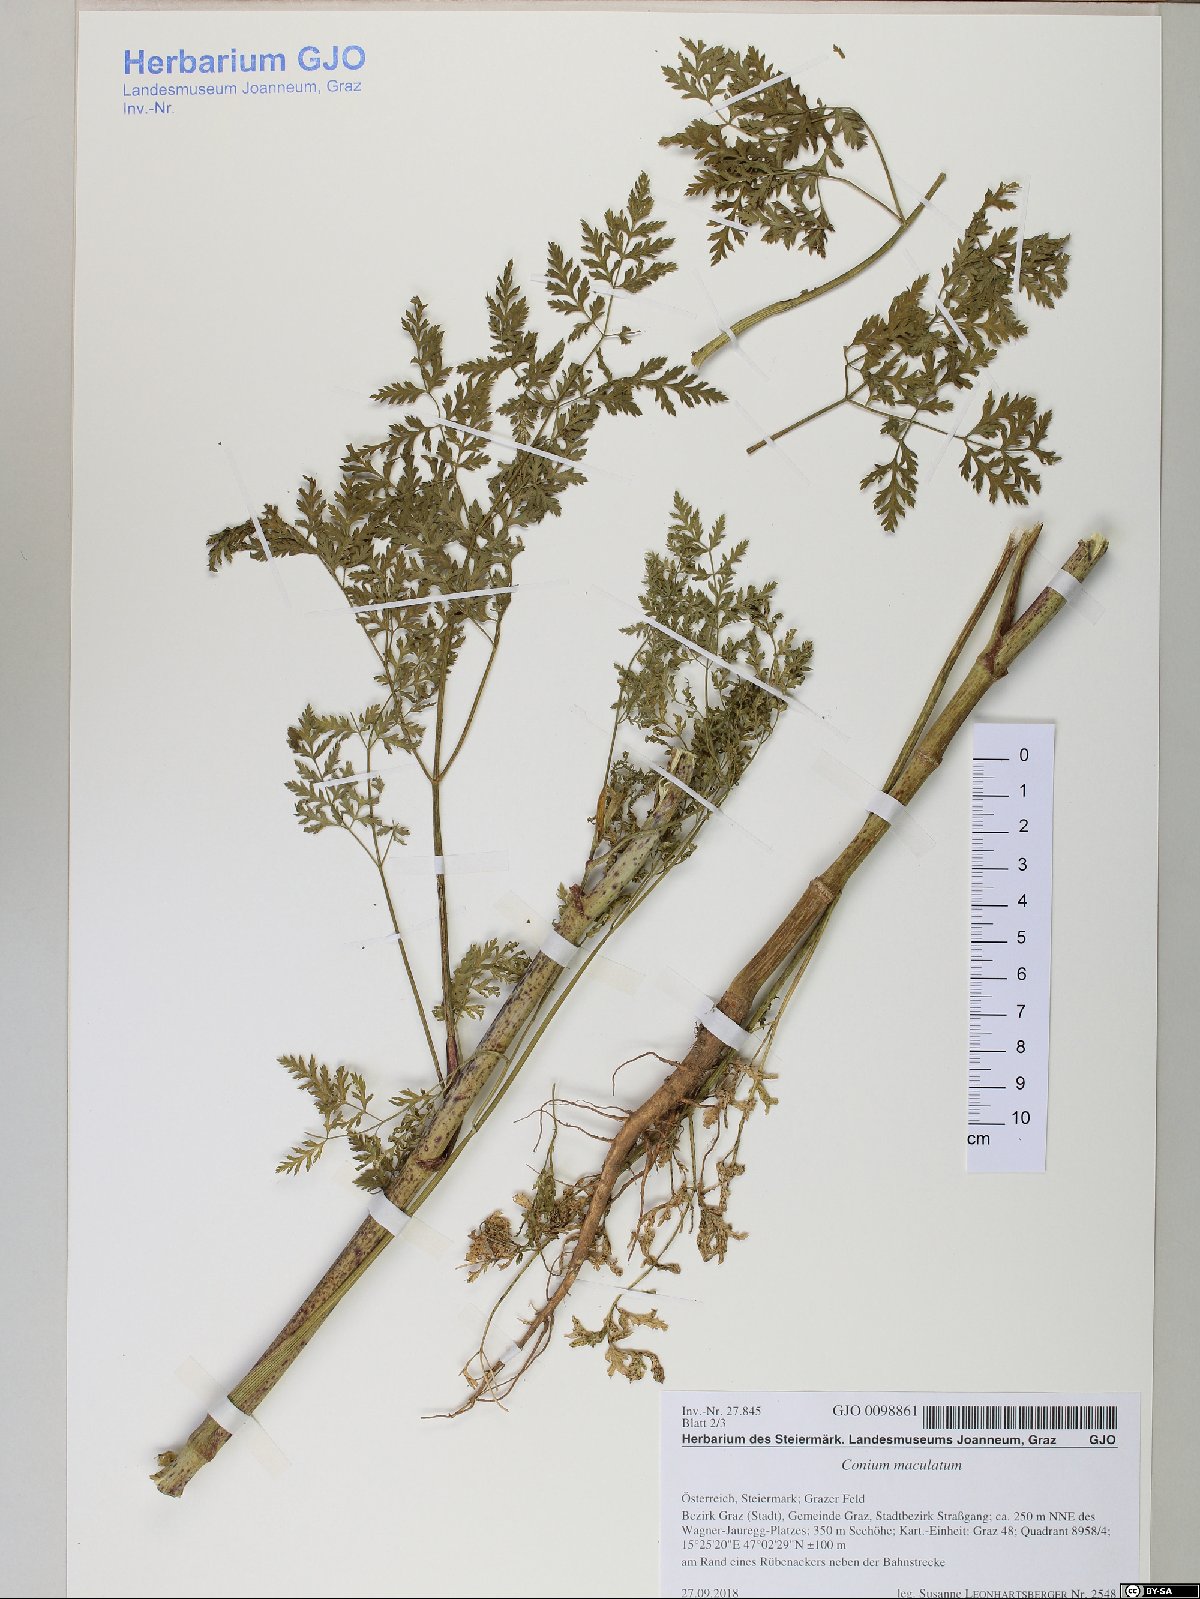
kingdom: Plantae
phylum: Tracheophyta
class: Magnoliopsida
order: Apiales
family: Apiaceae
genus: Conium
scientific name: Conium maculatum
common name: Hemlock
